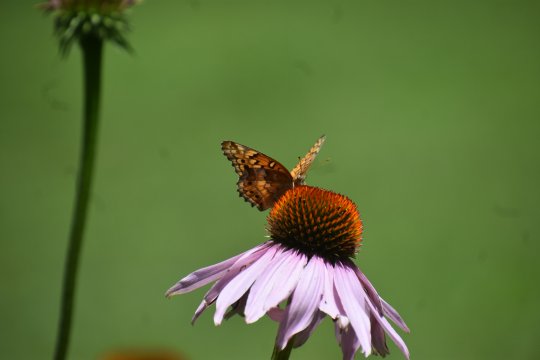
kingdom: Animalia
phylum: Arthropoda
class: Insecta
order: Lepidoptera
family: Nymphalidae
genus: Euptoieta
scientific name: Euptoieta claudia
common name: Variegated Fritillary
